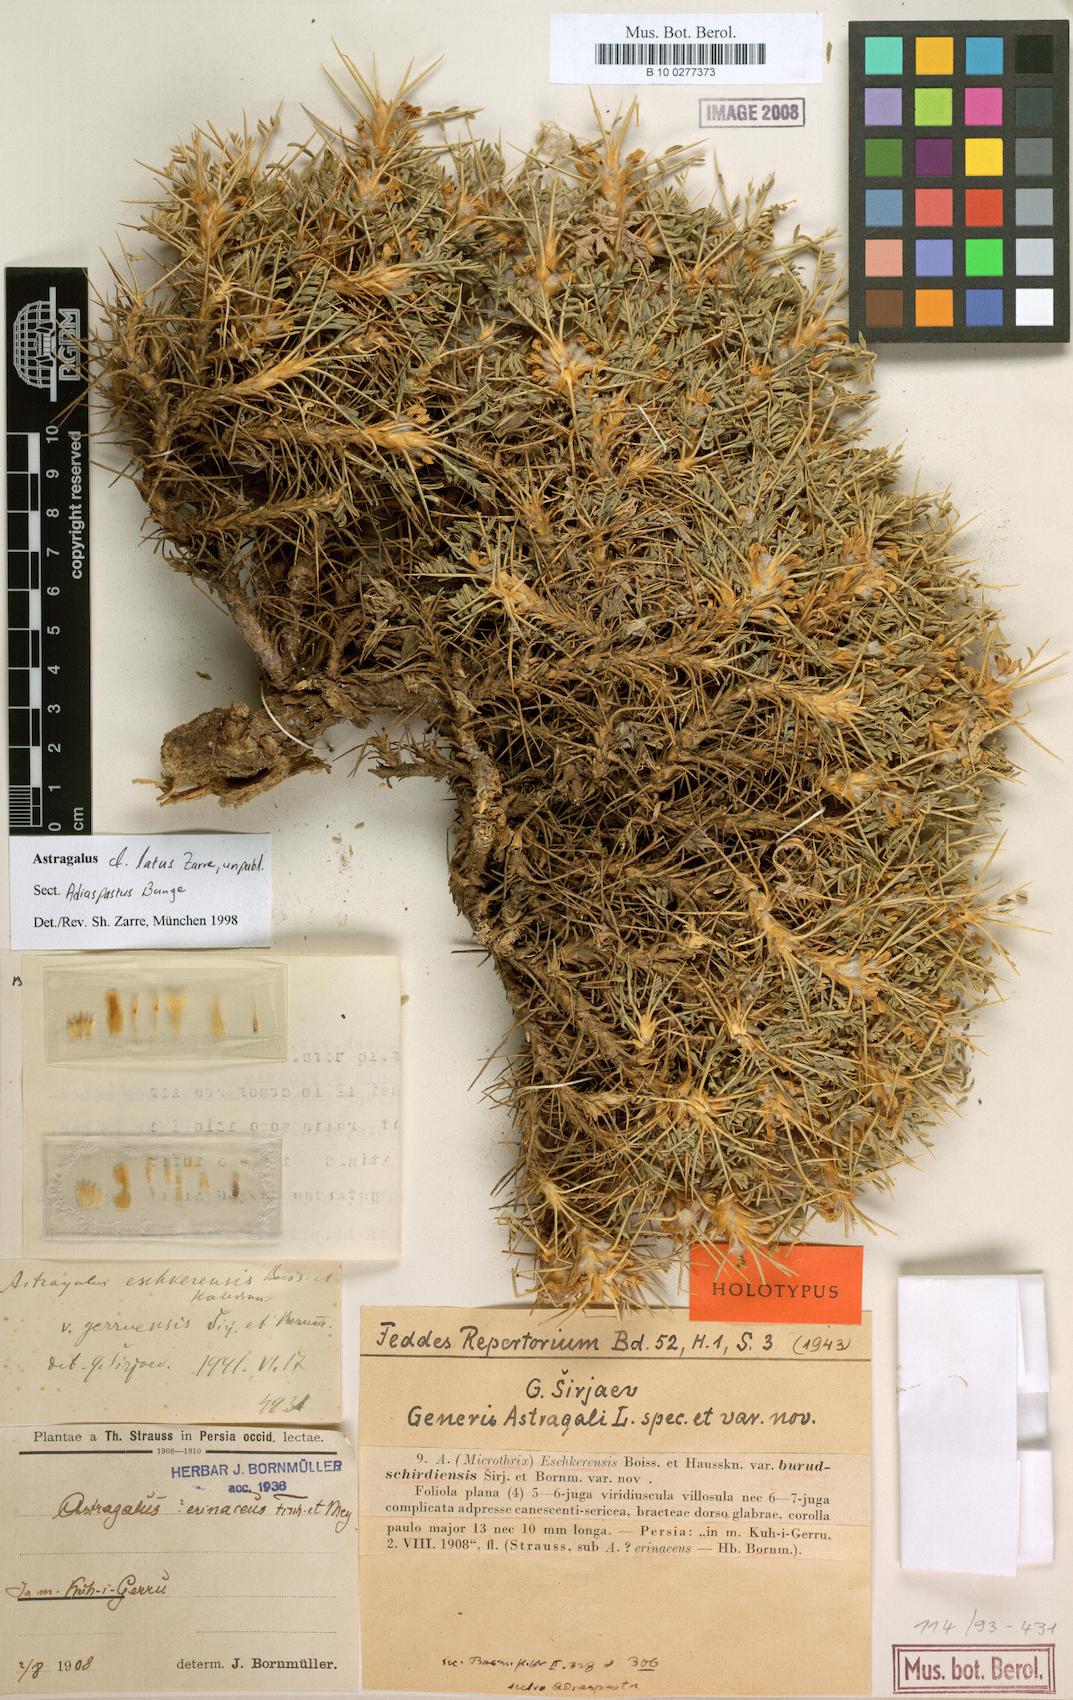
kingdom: Plantae
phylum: Tracheophyta
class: Magnoliopsida
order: Fabales
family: Fabaceae
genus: Astragalus
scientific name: Astragalus lentiginosus
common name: Freckled milkvetch
